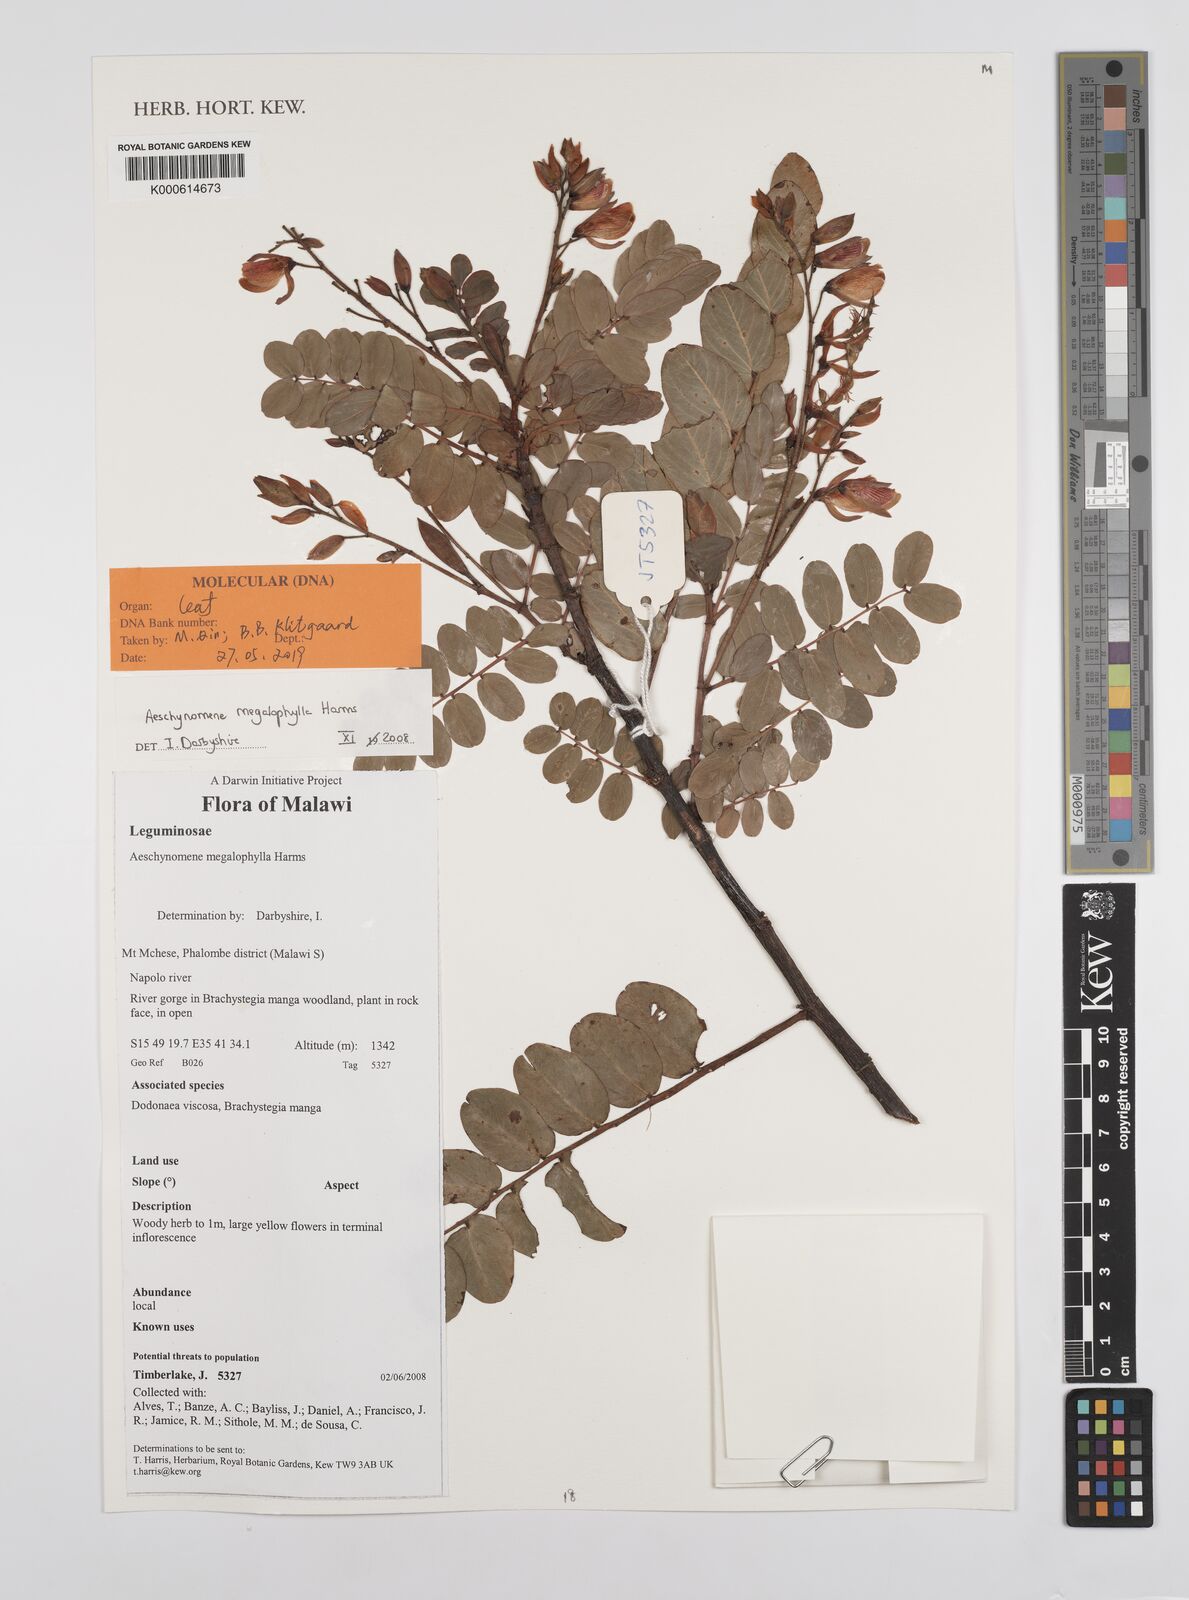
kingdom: Plantae
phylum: Tracheophyta
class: Magnoliopsida
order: Fabales
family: Fabaceae
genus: Aeschynomene
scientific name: Aeschynomene megalophylla
